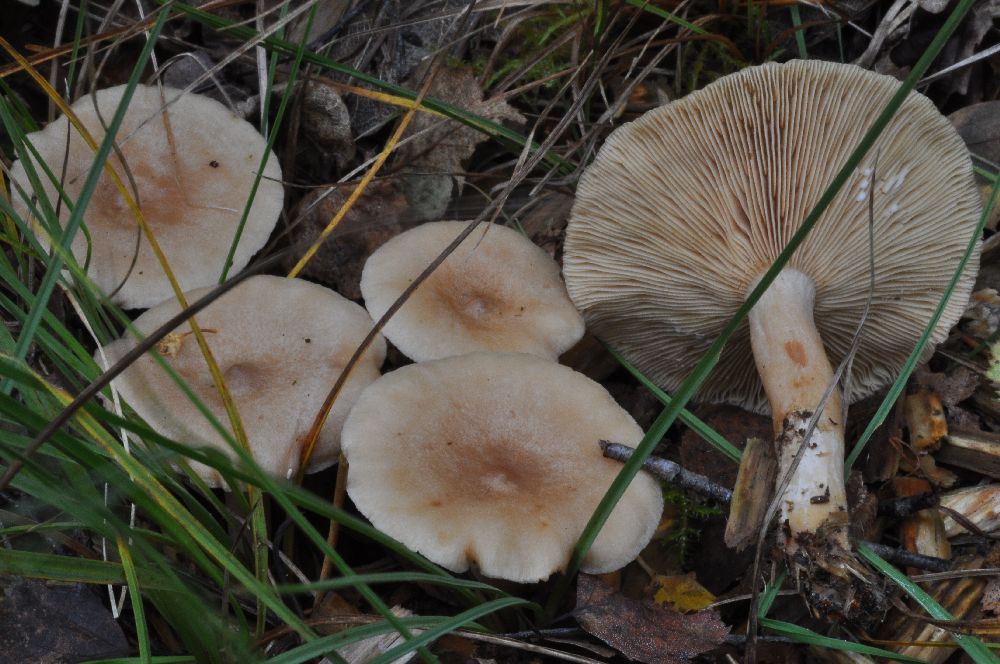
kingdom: Fungi
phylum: Basidiomycota
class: Agaricomycetes
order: Russulales
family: Russulaceae
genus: Lactarius
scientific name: Lactarius glyciosmus
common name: kokos-mælkehat
